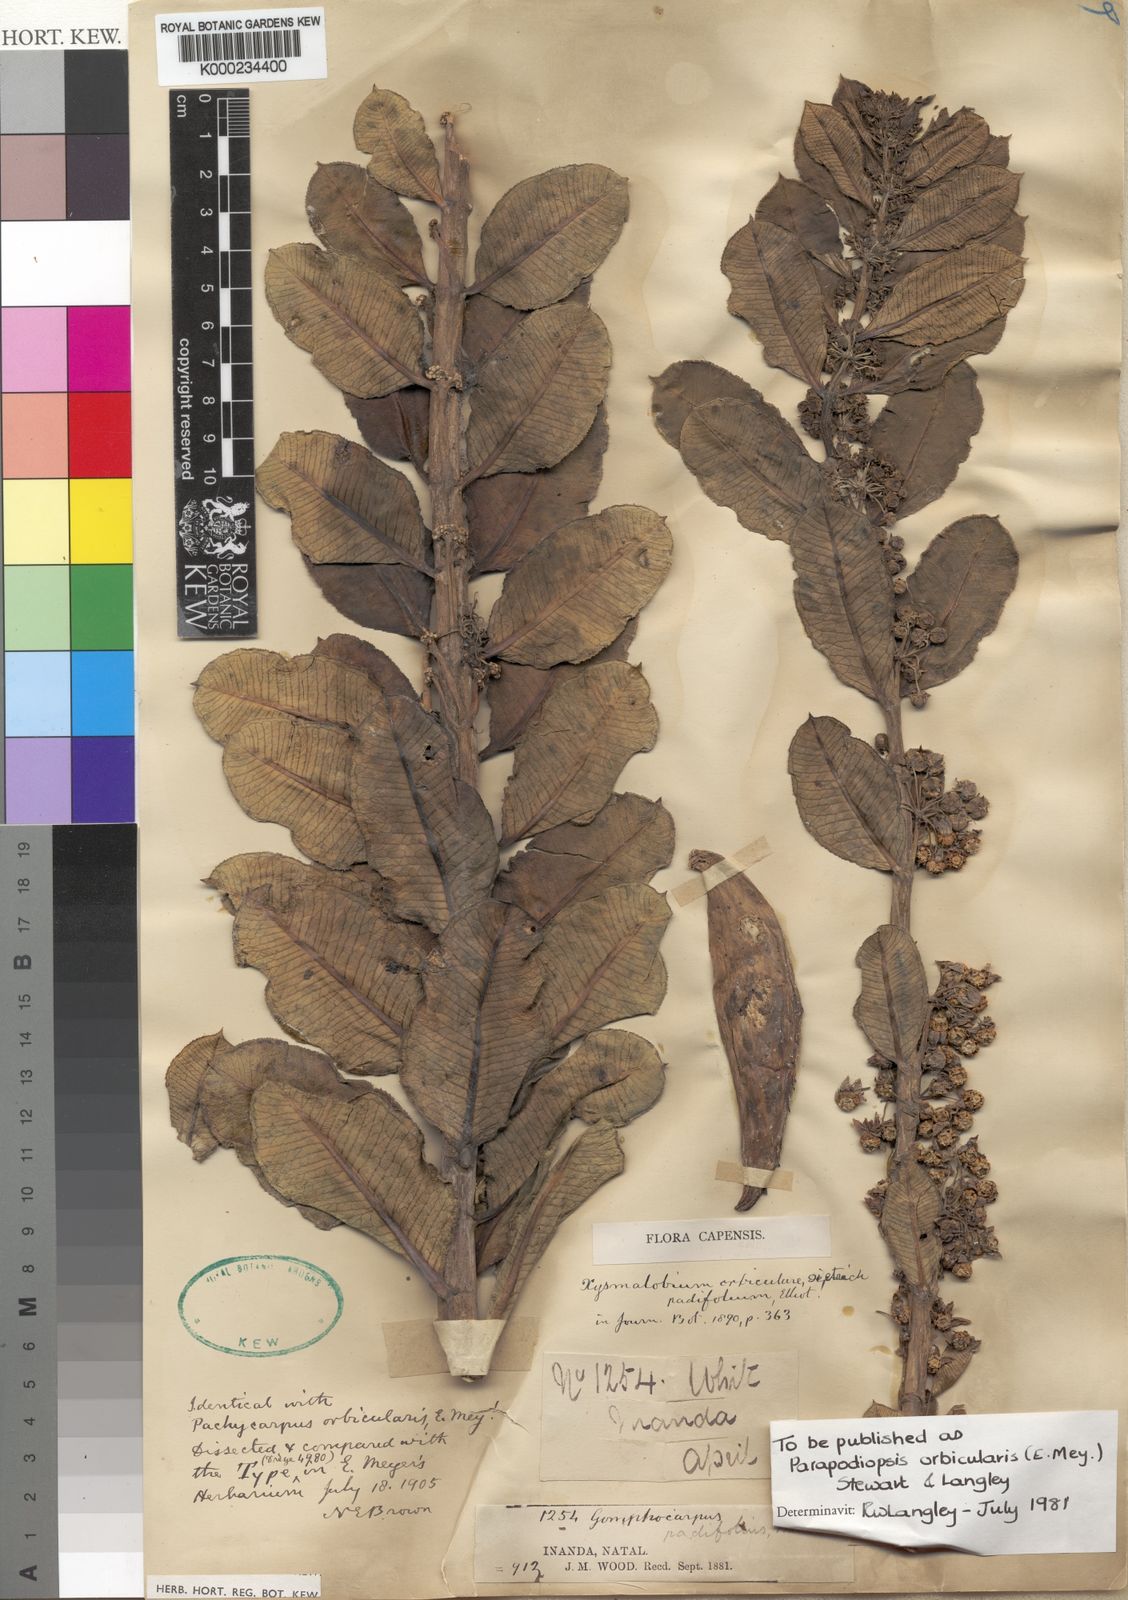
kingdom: Plantae
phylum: Tracheophyta
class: Magnoliopsida
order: Gentianales
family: Apocynaceae
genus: Xysmalobium
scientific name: Xysmalobium orbiculare
